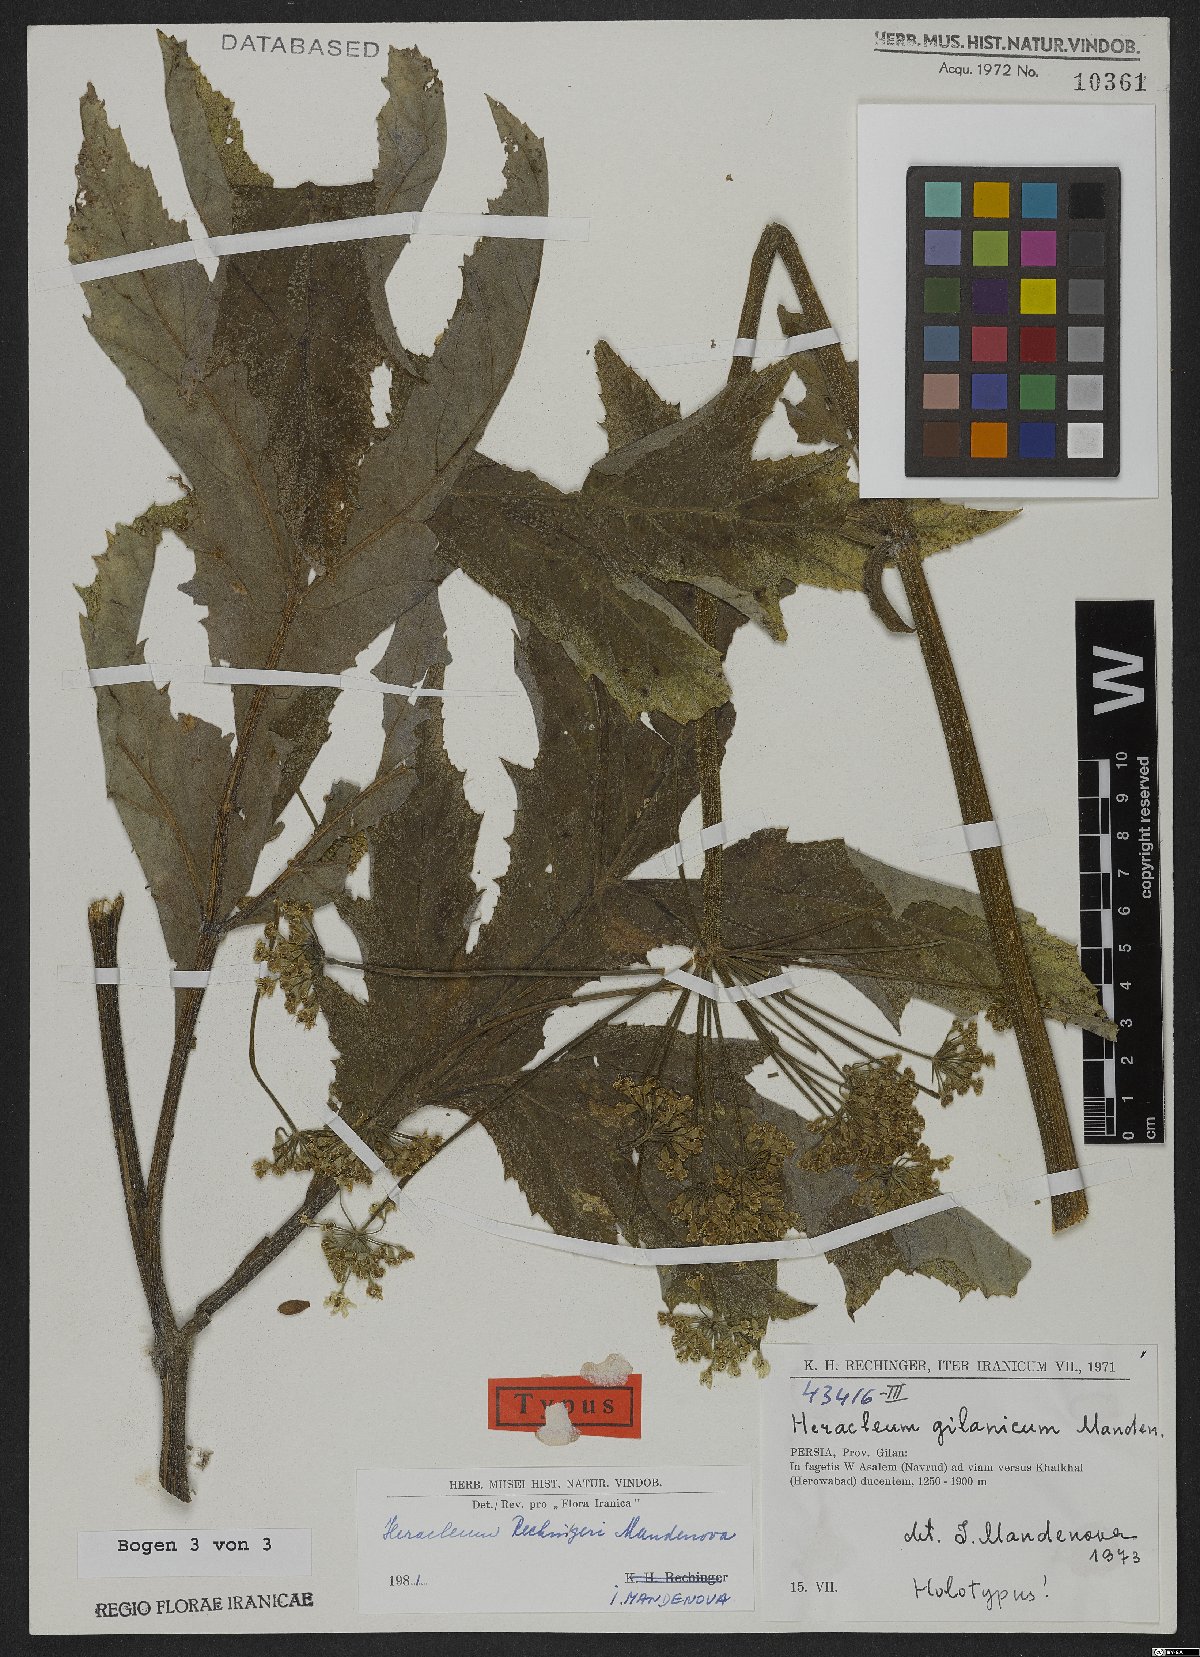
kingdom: Plantae
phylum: Tracheophyta
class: Magnoliopsida
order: Apiales
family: Apiaceae
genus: Heracleum
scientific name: Heracleum rechingeri
